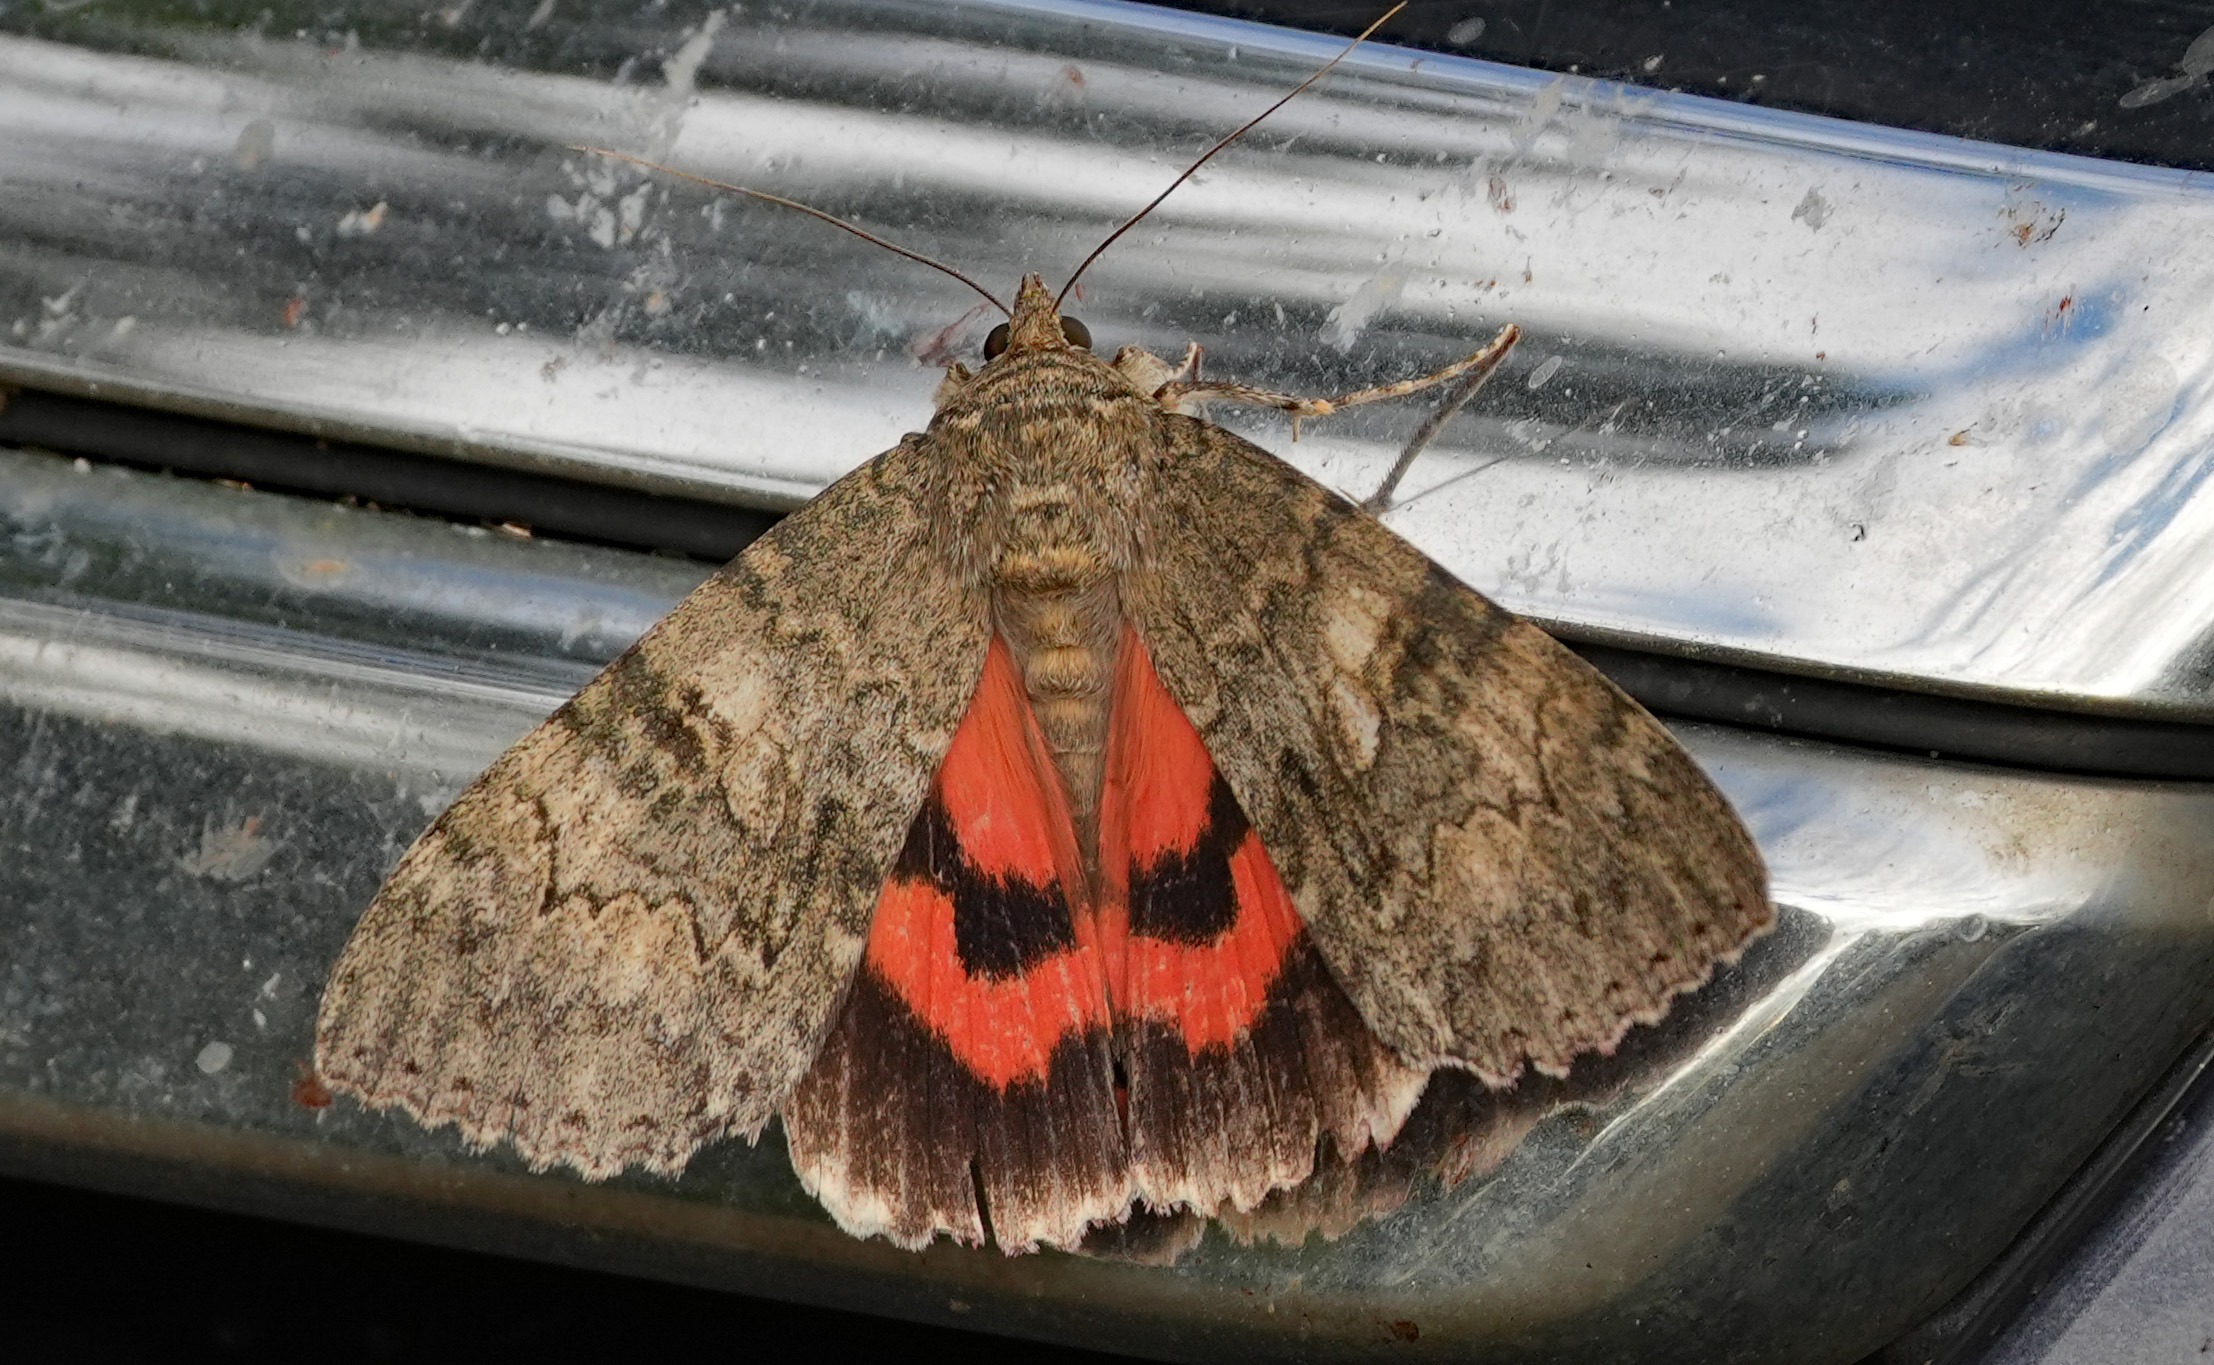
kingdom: Animalia
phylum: Arthropoda
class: Insecta
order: Lepidoptera
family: Erebidae
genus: Catocala
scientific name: Catocala nupta
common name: Rødt ordensbånd
